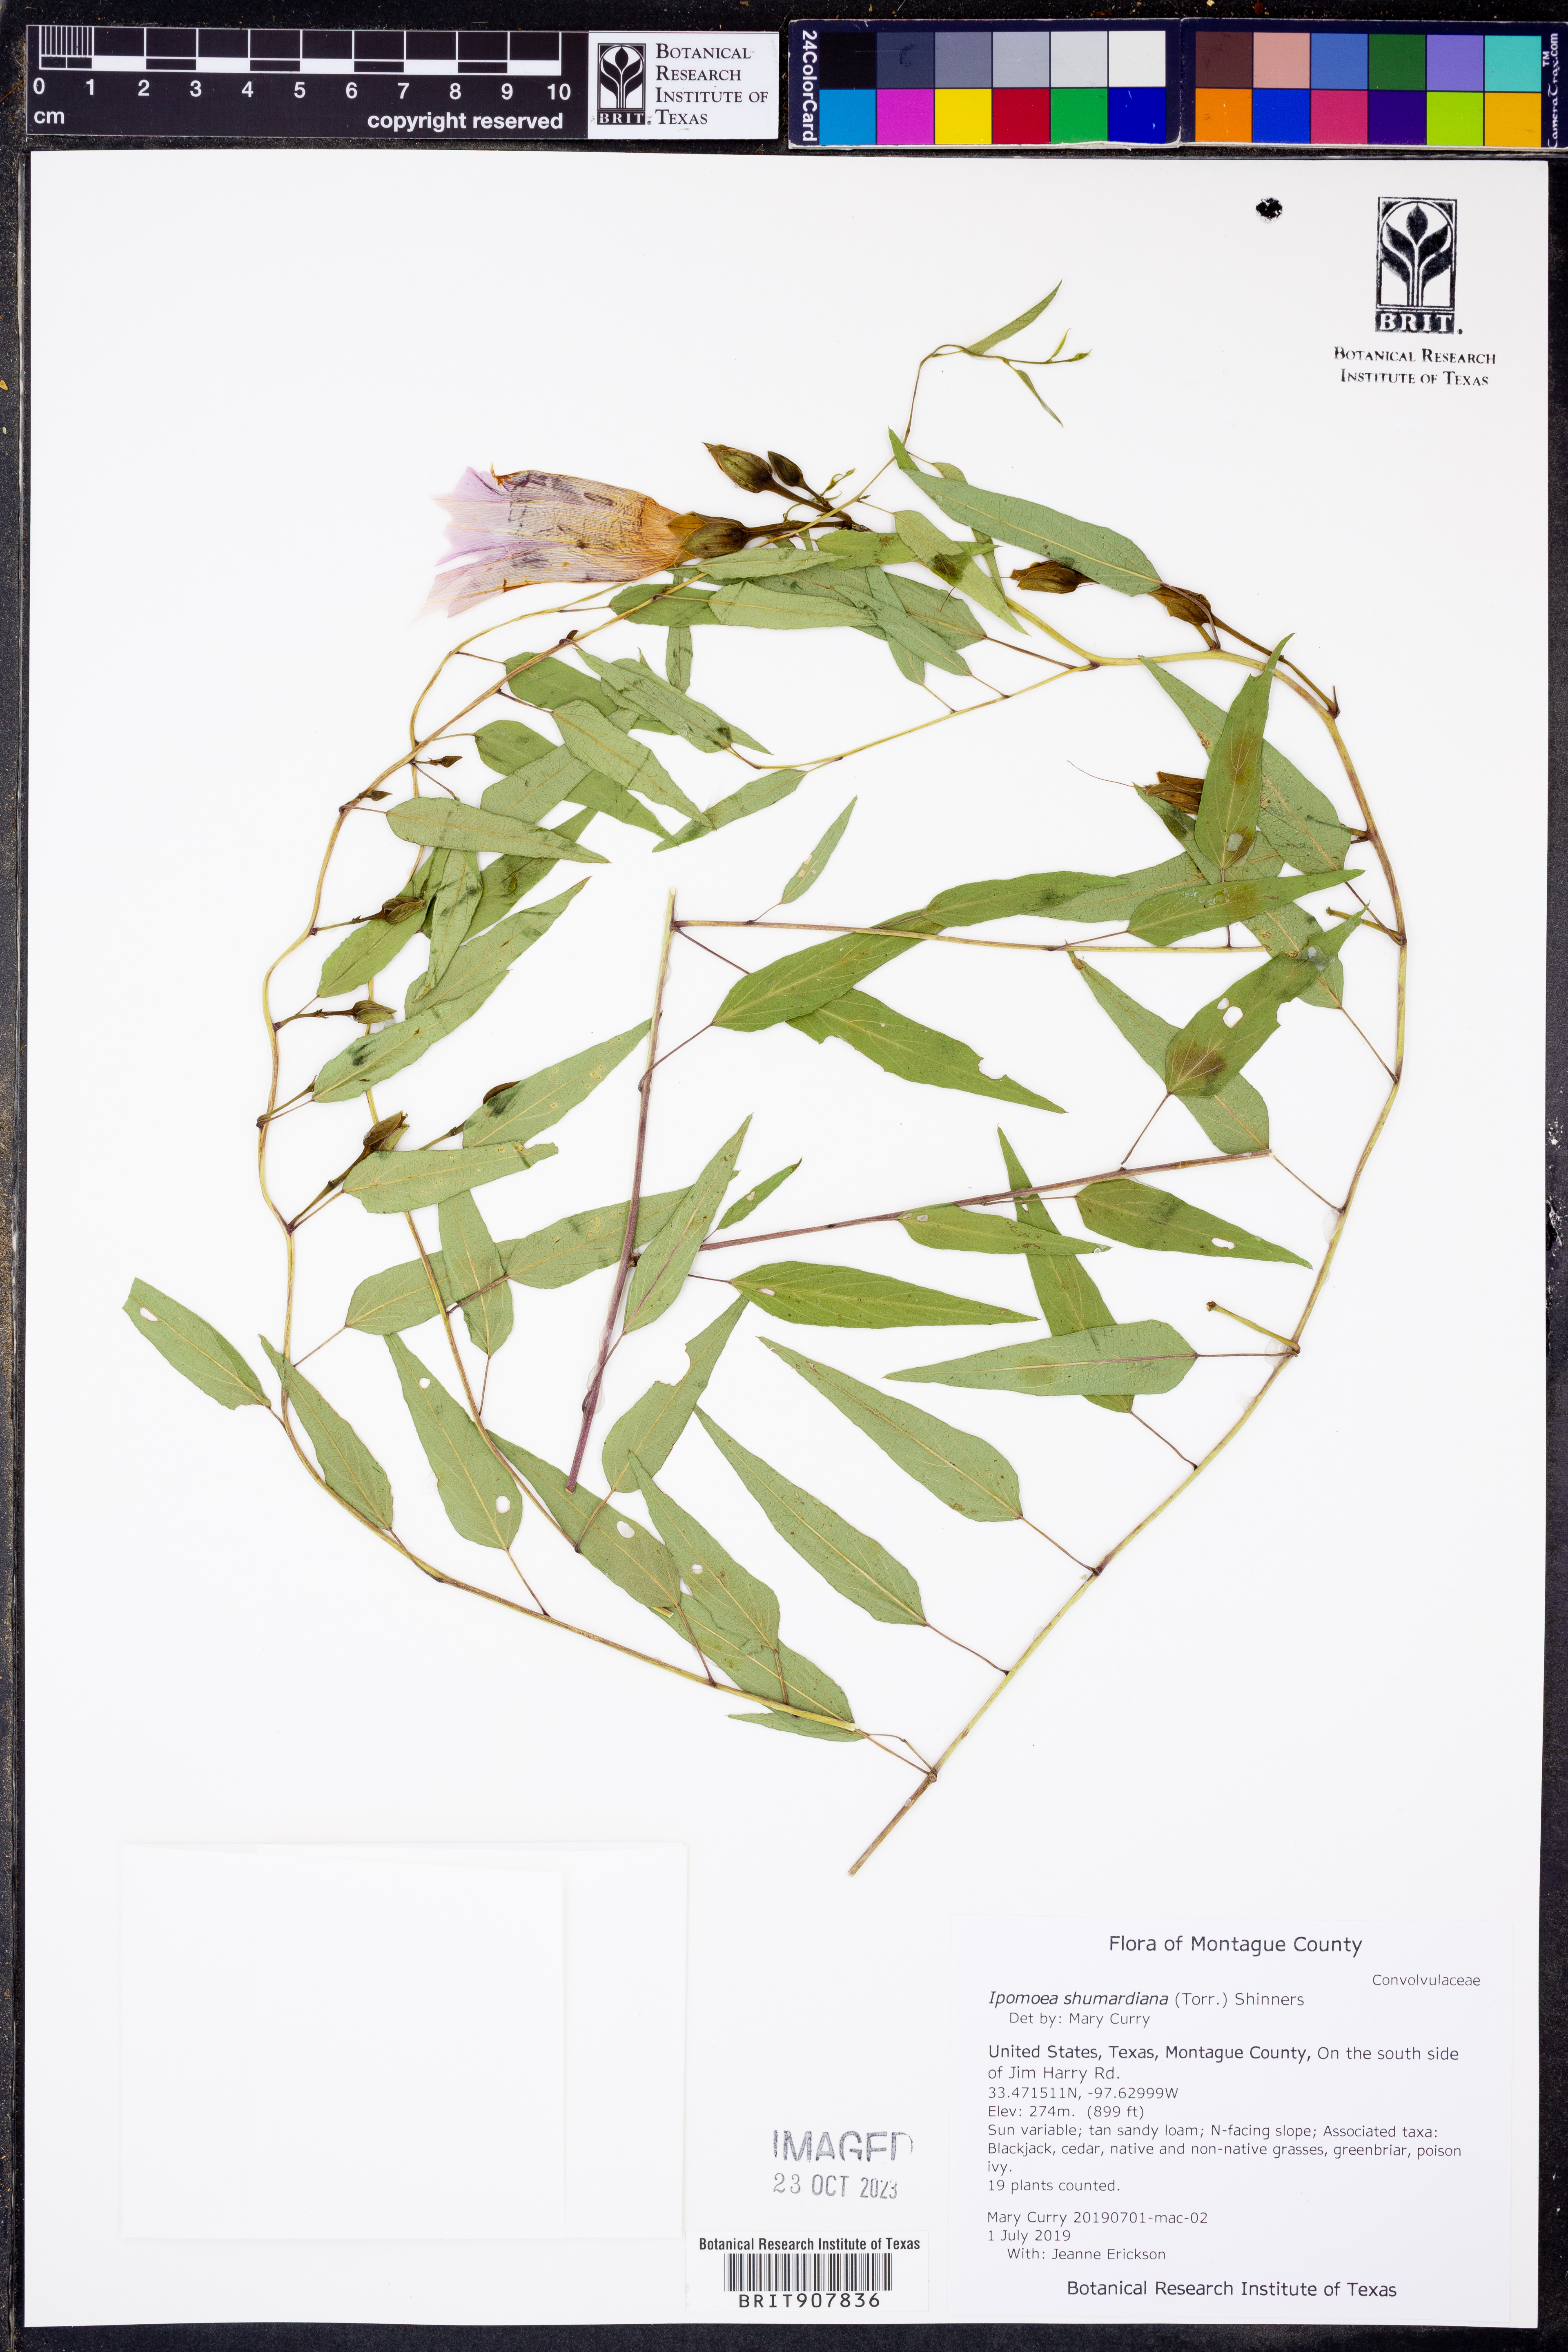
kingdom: Plantae
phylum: Tracheophyta
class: Magnoliopsida
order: Solanales
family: Convolvulaceae
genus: Ipomoea
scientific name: Ipomoea shumardiana
